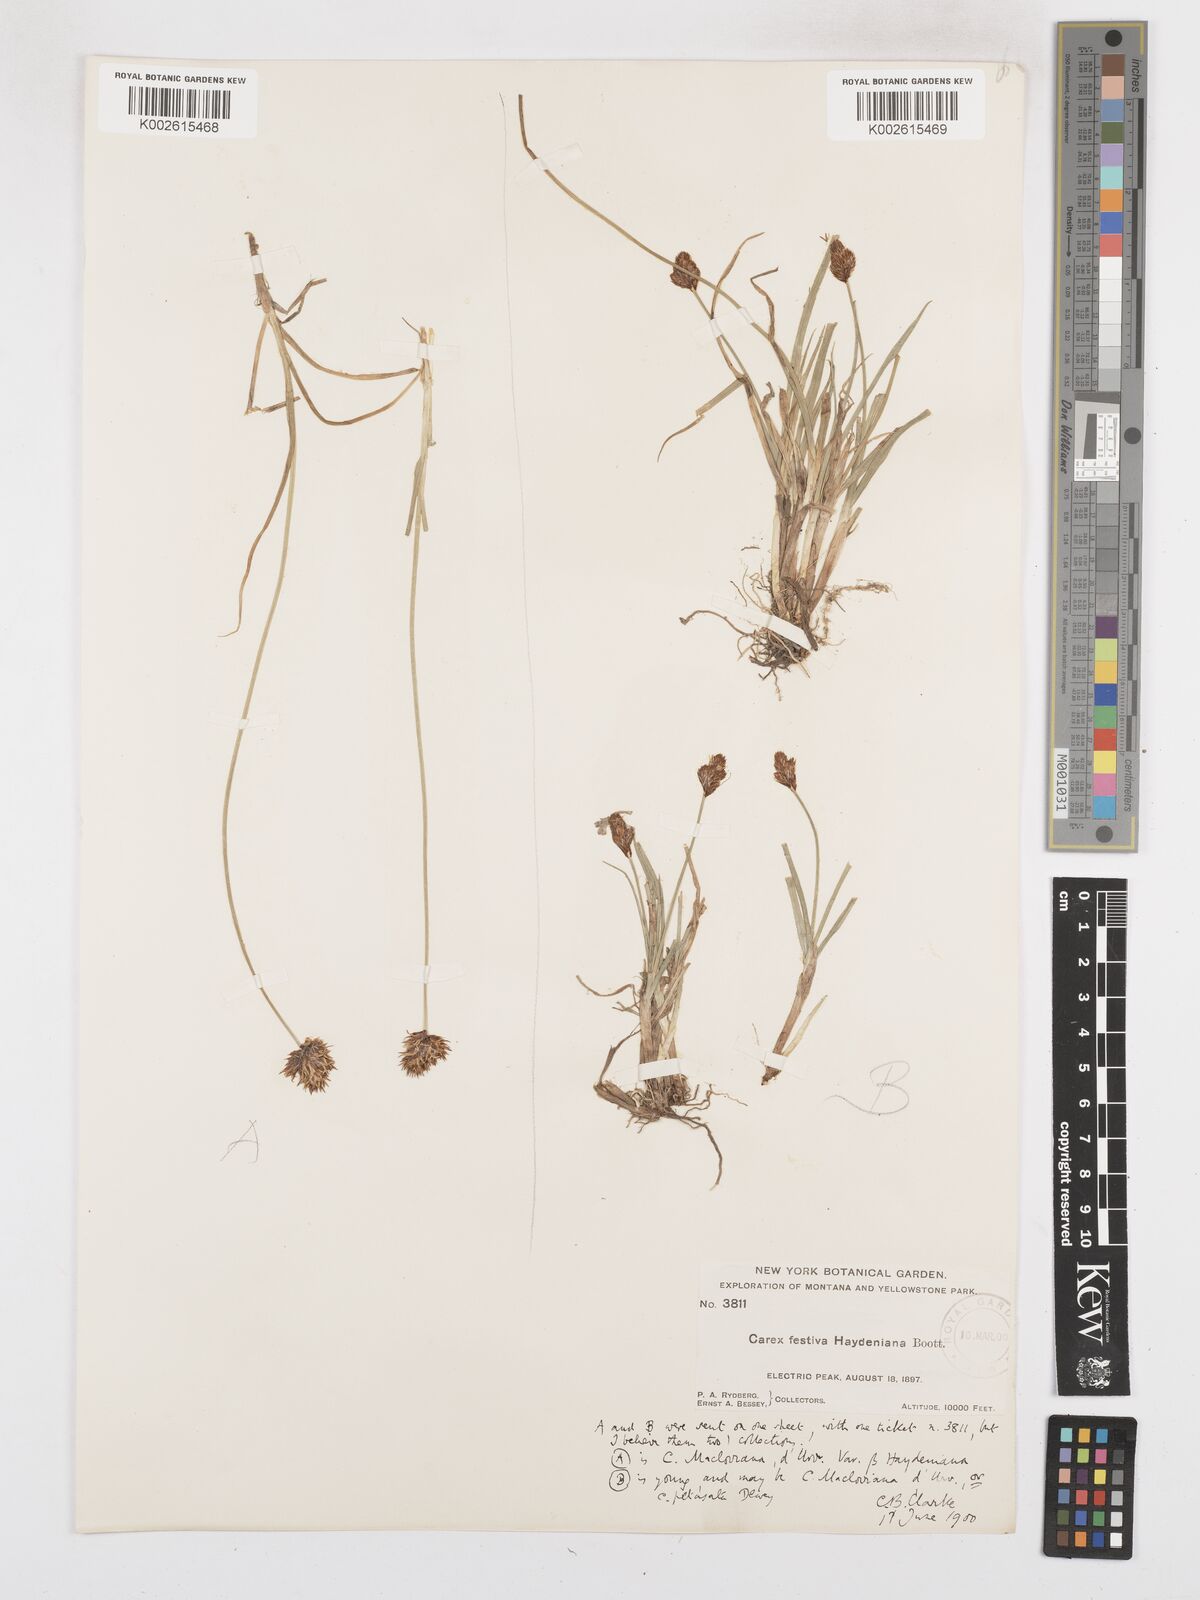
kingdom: Plantae
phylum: Tracheophyta
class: Liliopsida
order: Poales
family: Cyperaceae
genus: Carex
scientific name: Carex haydeniana
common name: Cloud sedge
